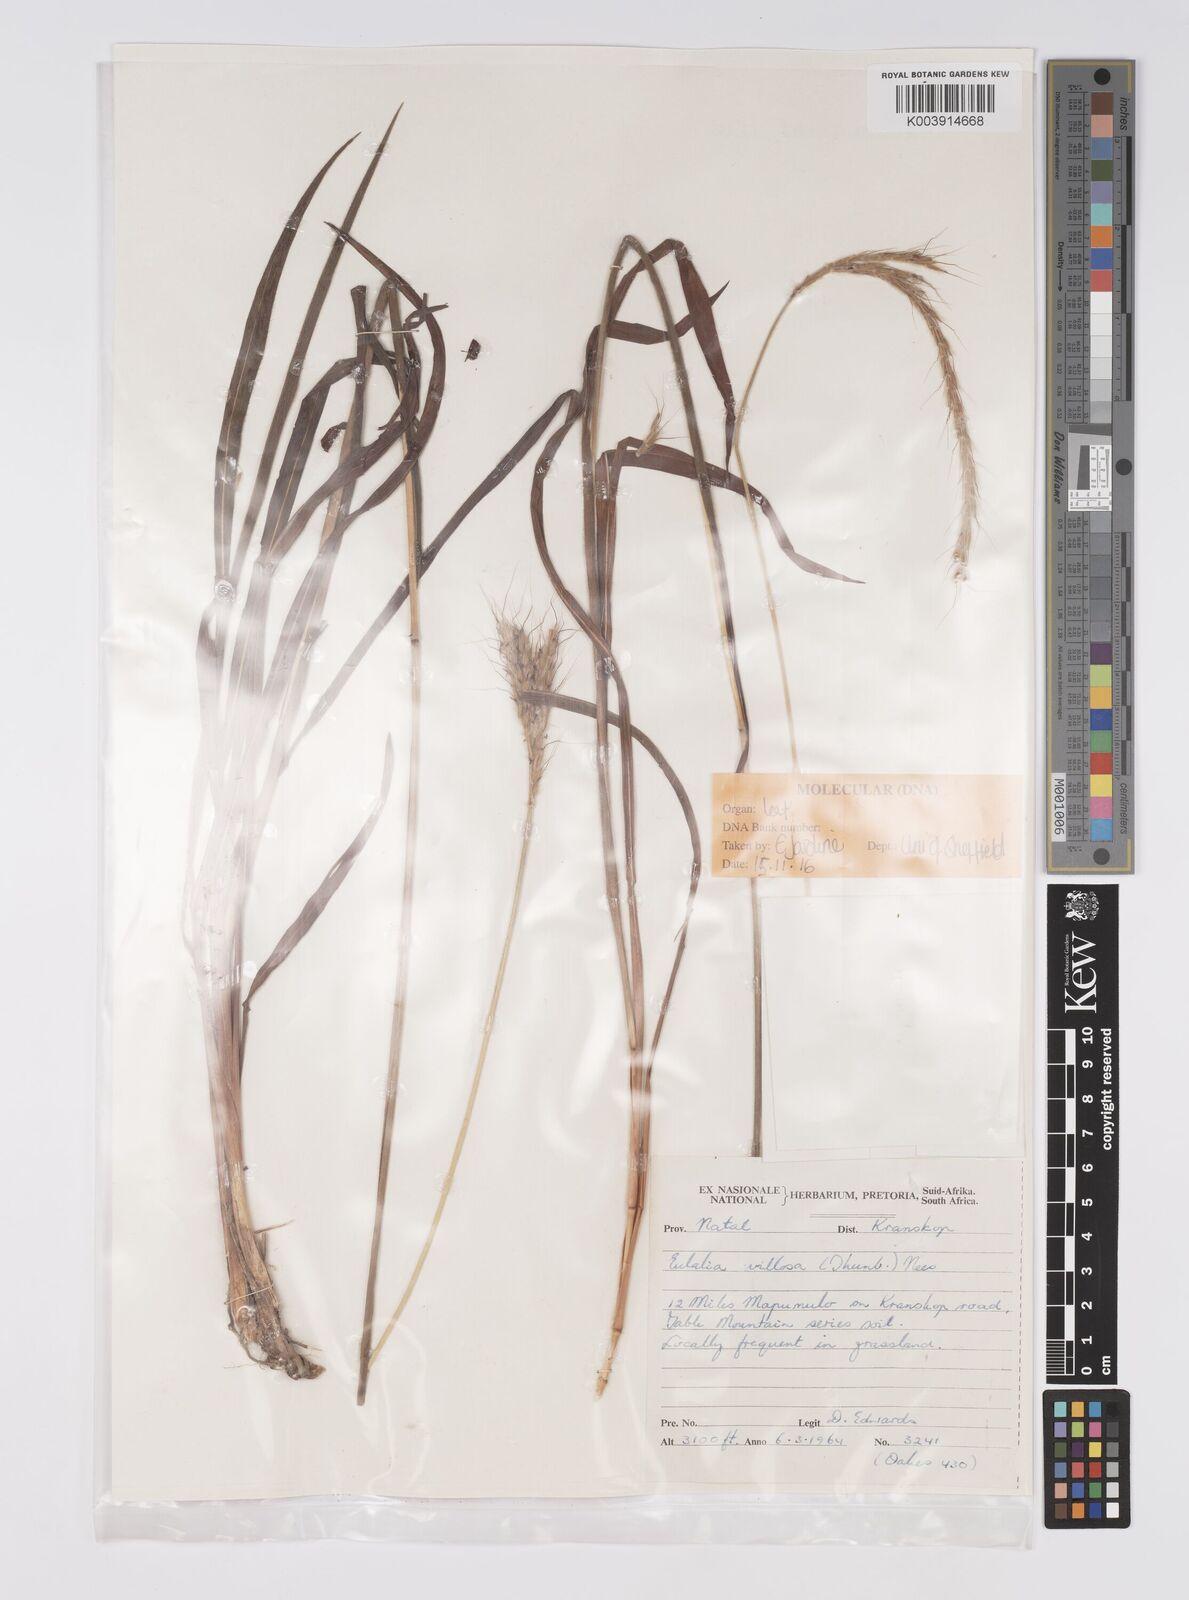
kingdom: Plantae
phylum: Tracheophyta
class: Liliopsida
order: Poales
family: Poaceae
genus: Eulalia
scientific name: Eulalia villosa
